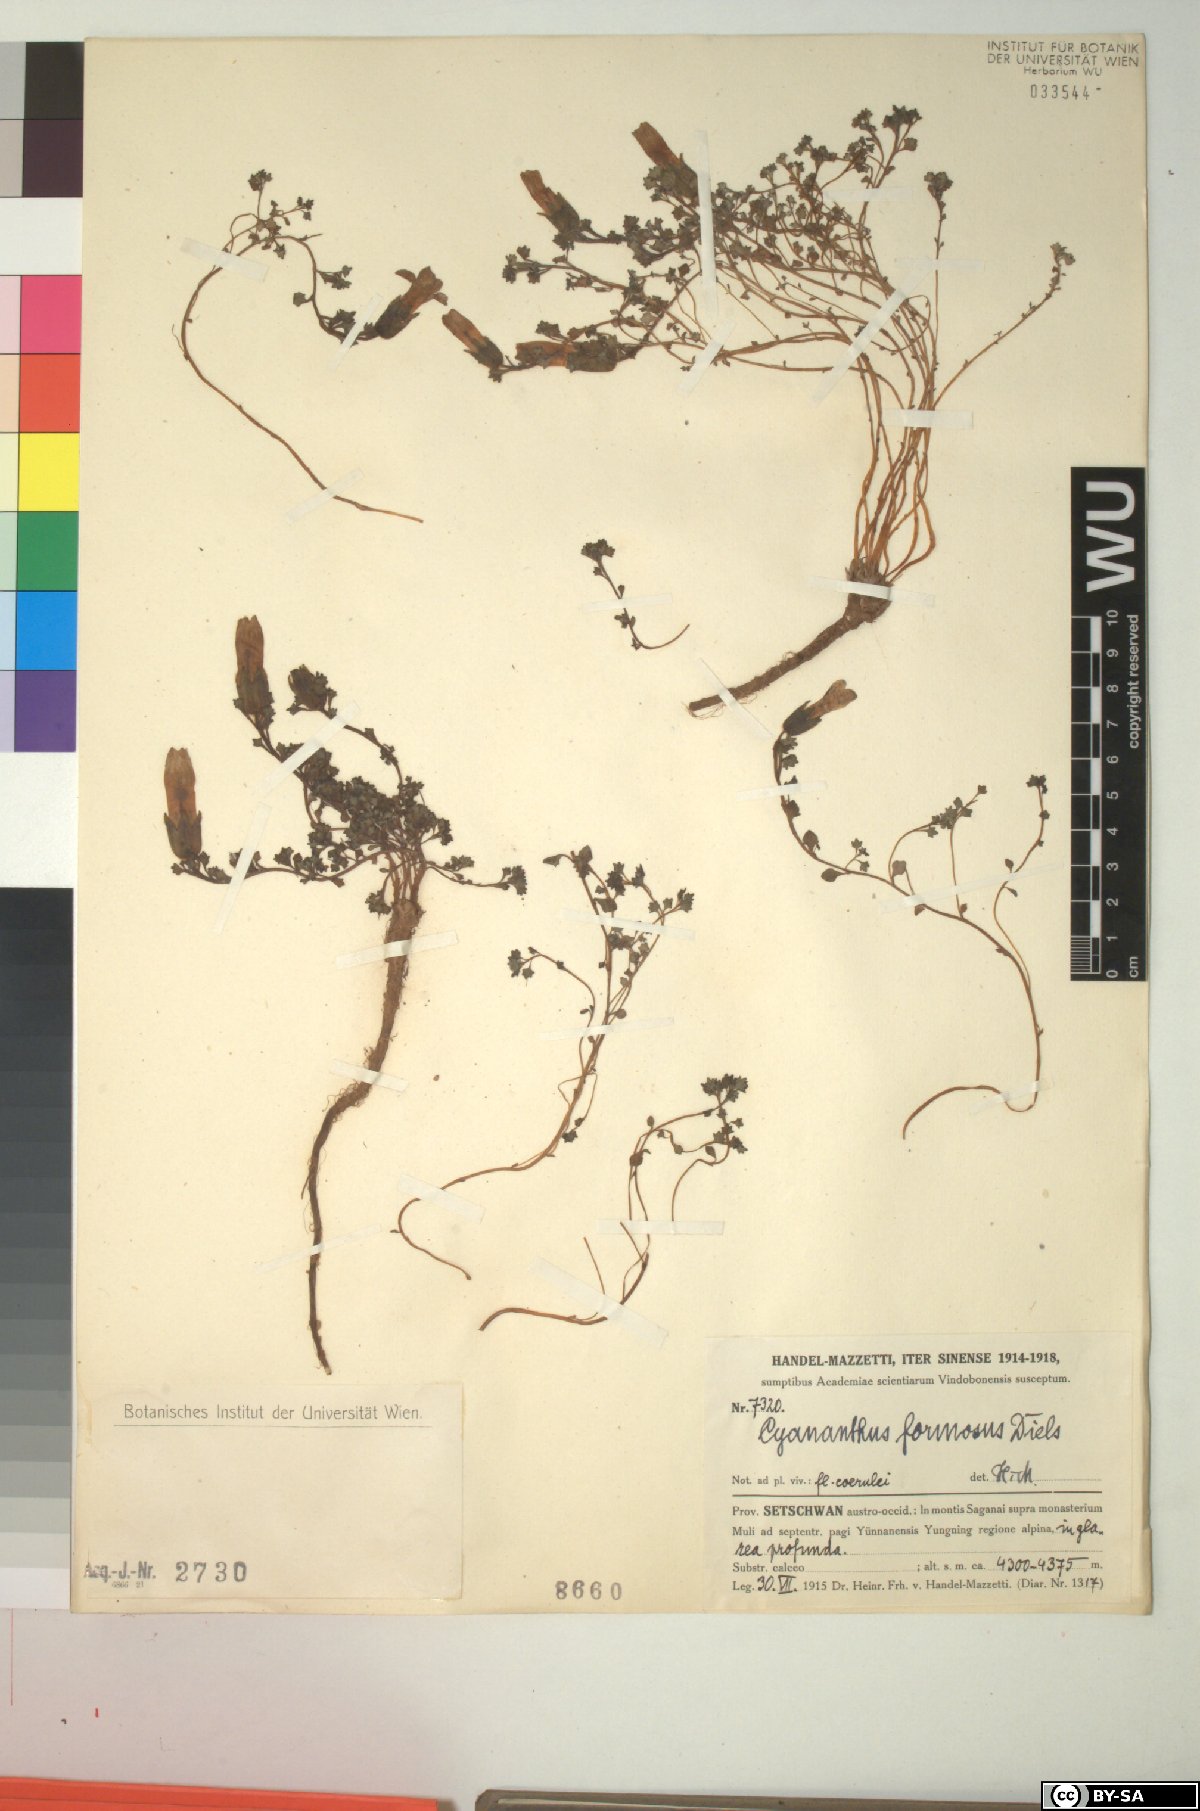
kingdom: Plantae
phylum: Tracheophyta
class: Magnoliopsida
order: Asterales
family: Campanulaceae
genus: Cyananthus
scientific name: Cyananthus formosus
